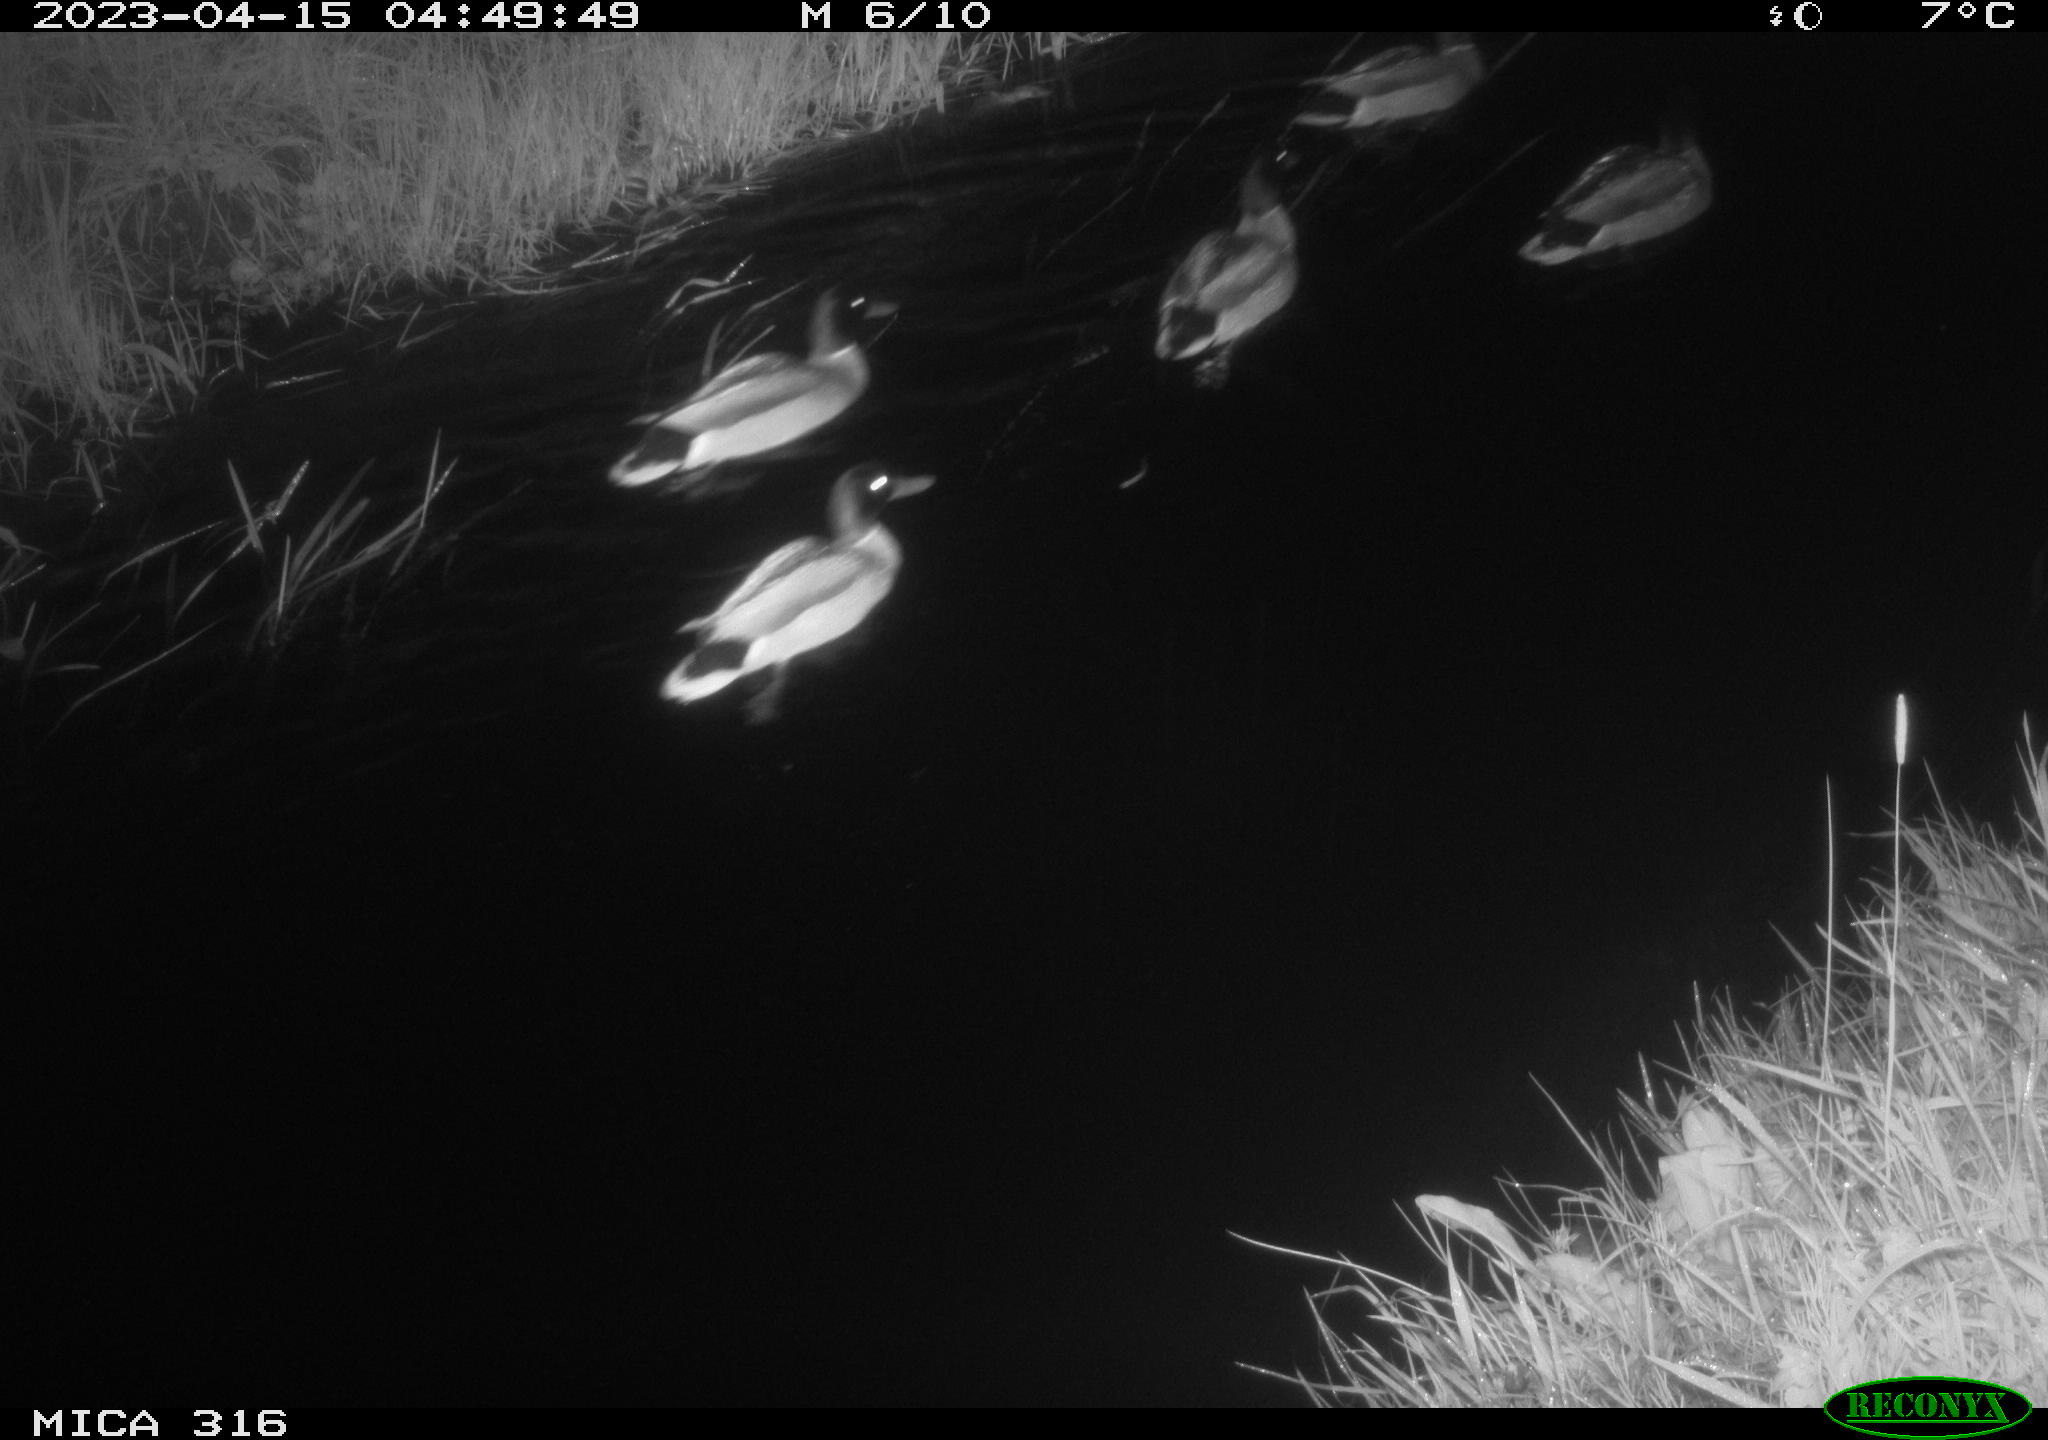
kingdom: Animalia
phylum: Chordata
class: Aves
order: Anseriformes
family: Anatidae
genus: Anas
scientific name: Anas
